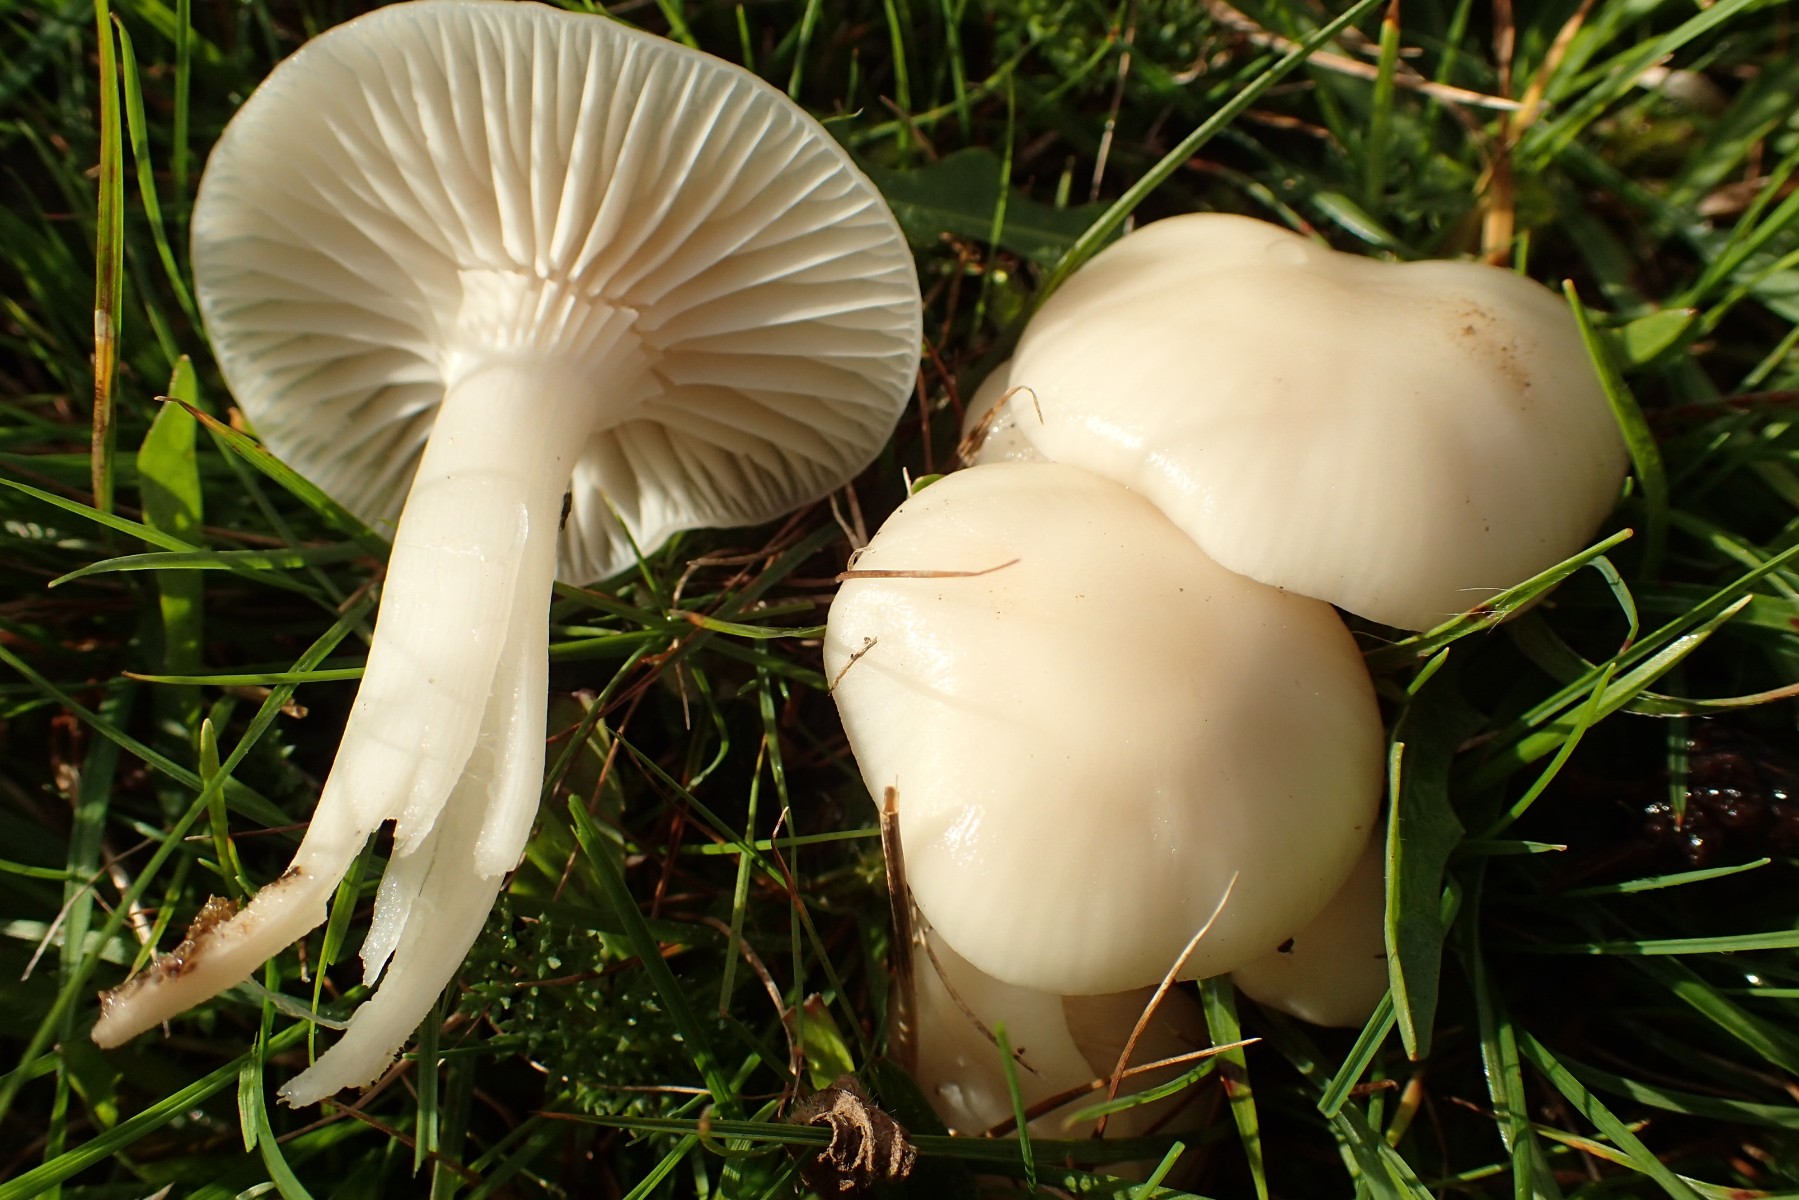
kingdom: Fungi
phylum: Basidiomycota
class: Agaricomycetes
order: Agaricales
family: Hygrophoraceae
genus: Cuphophyllus
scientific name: Cuphophyllus virgineus
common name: snehvid vokshat
